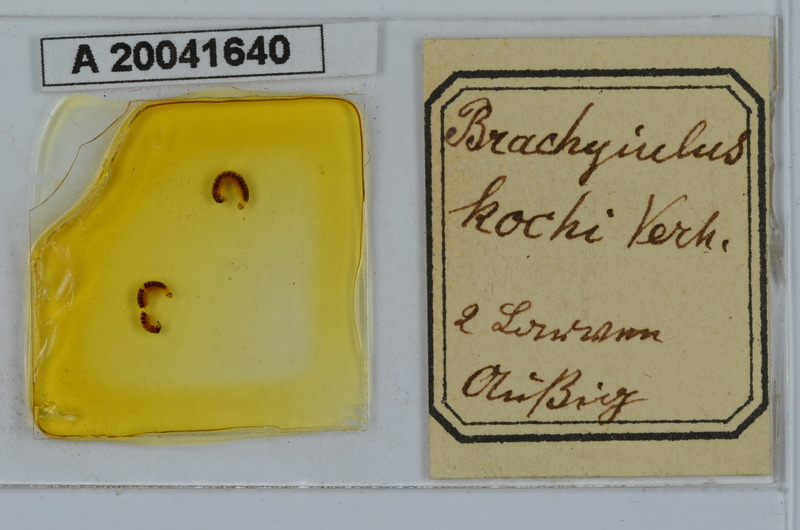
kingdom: Animalia
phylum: Arthropoda
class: Diplopoda
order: Julida
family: Julidae
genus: Megaphyllum
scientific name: Megaphyllum projectum
